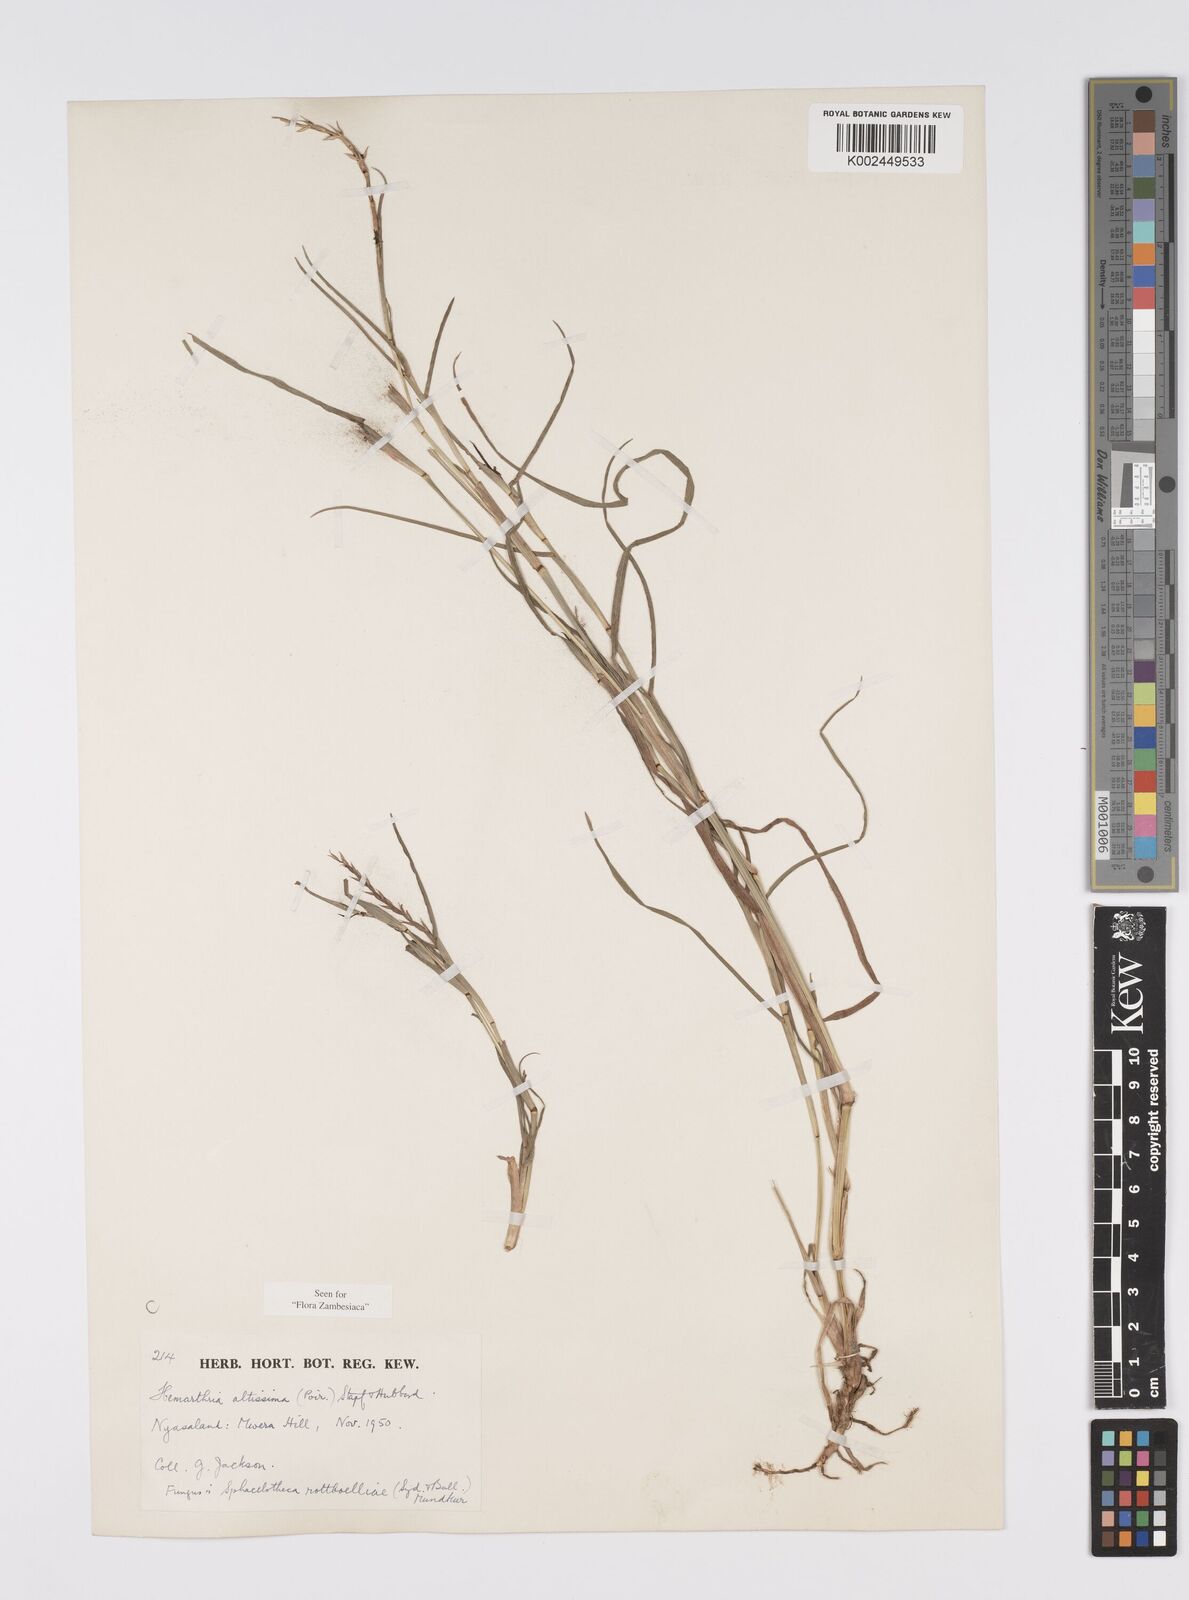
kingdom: Plantae
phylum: Tracheophyta
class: Liliopsida
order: Poales
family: Poaceae
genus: Hemarthria
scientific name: Hemarthria altissima
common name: African jointgrass
